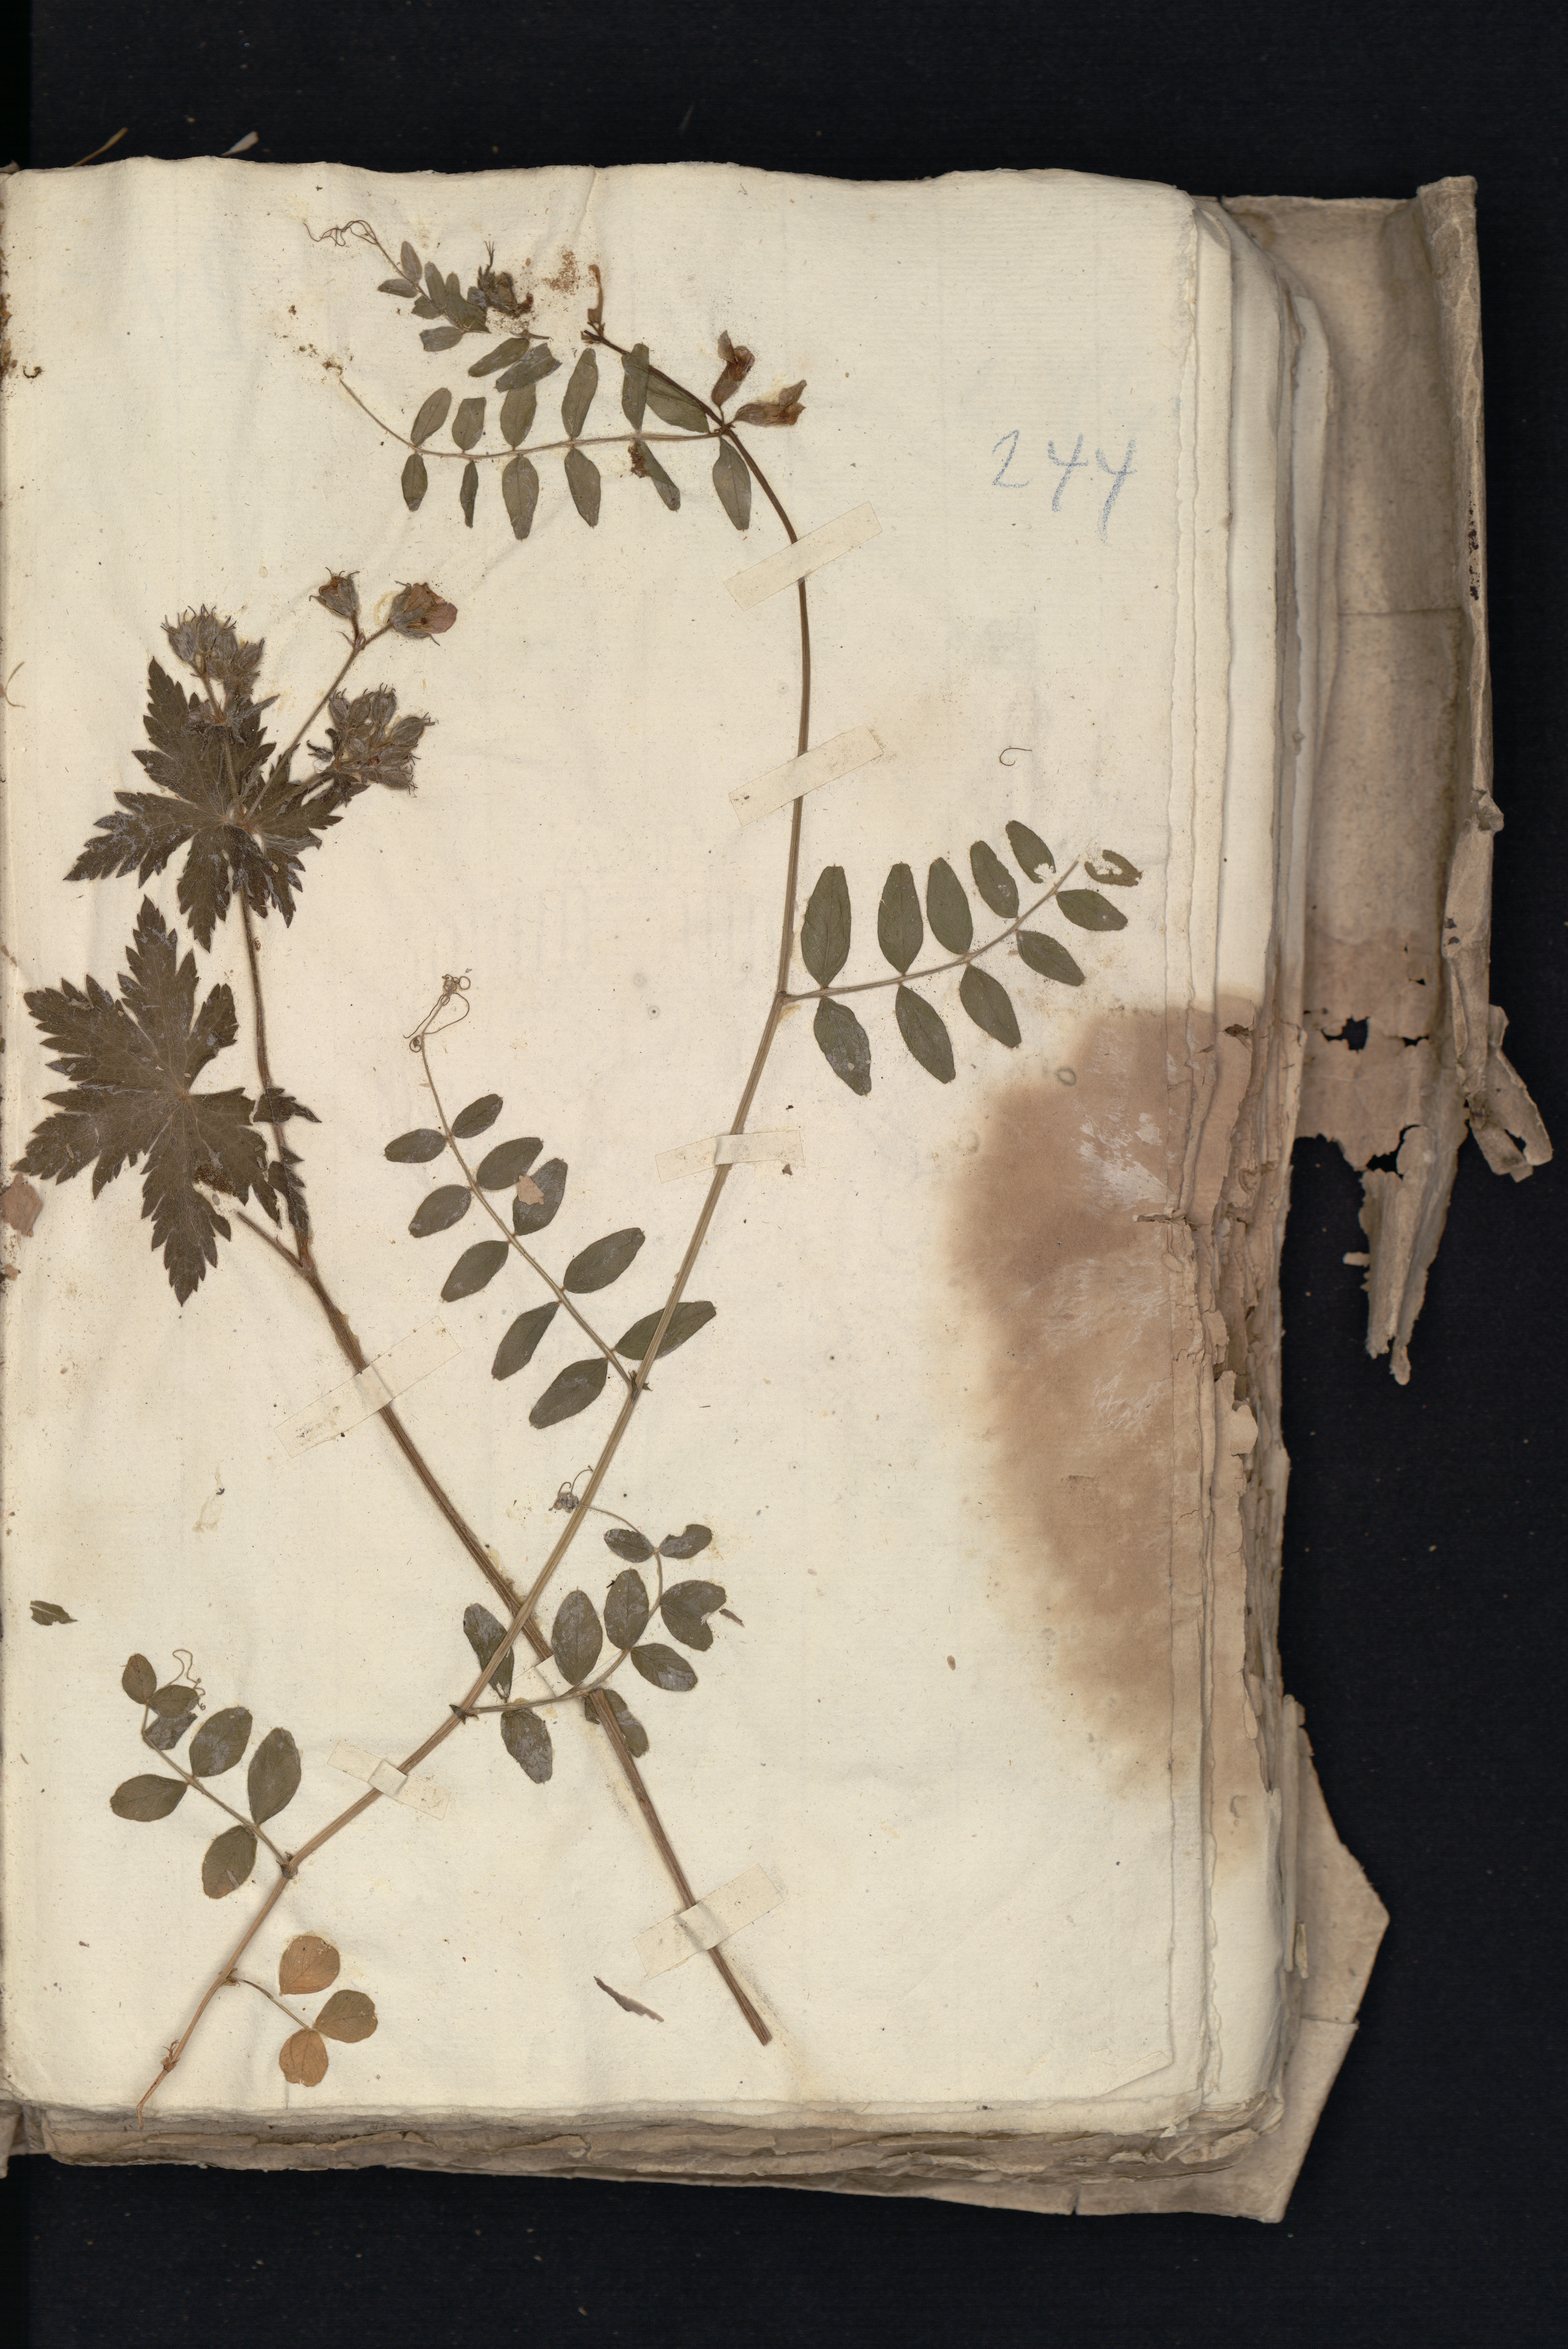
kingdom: Plantae
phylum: Tracheophyta
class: Magnoliopsida
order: Fabales
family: Fabaceae
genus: Vicia
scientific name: Vicia sepium
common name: Bush vetch
